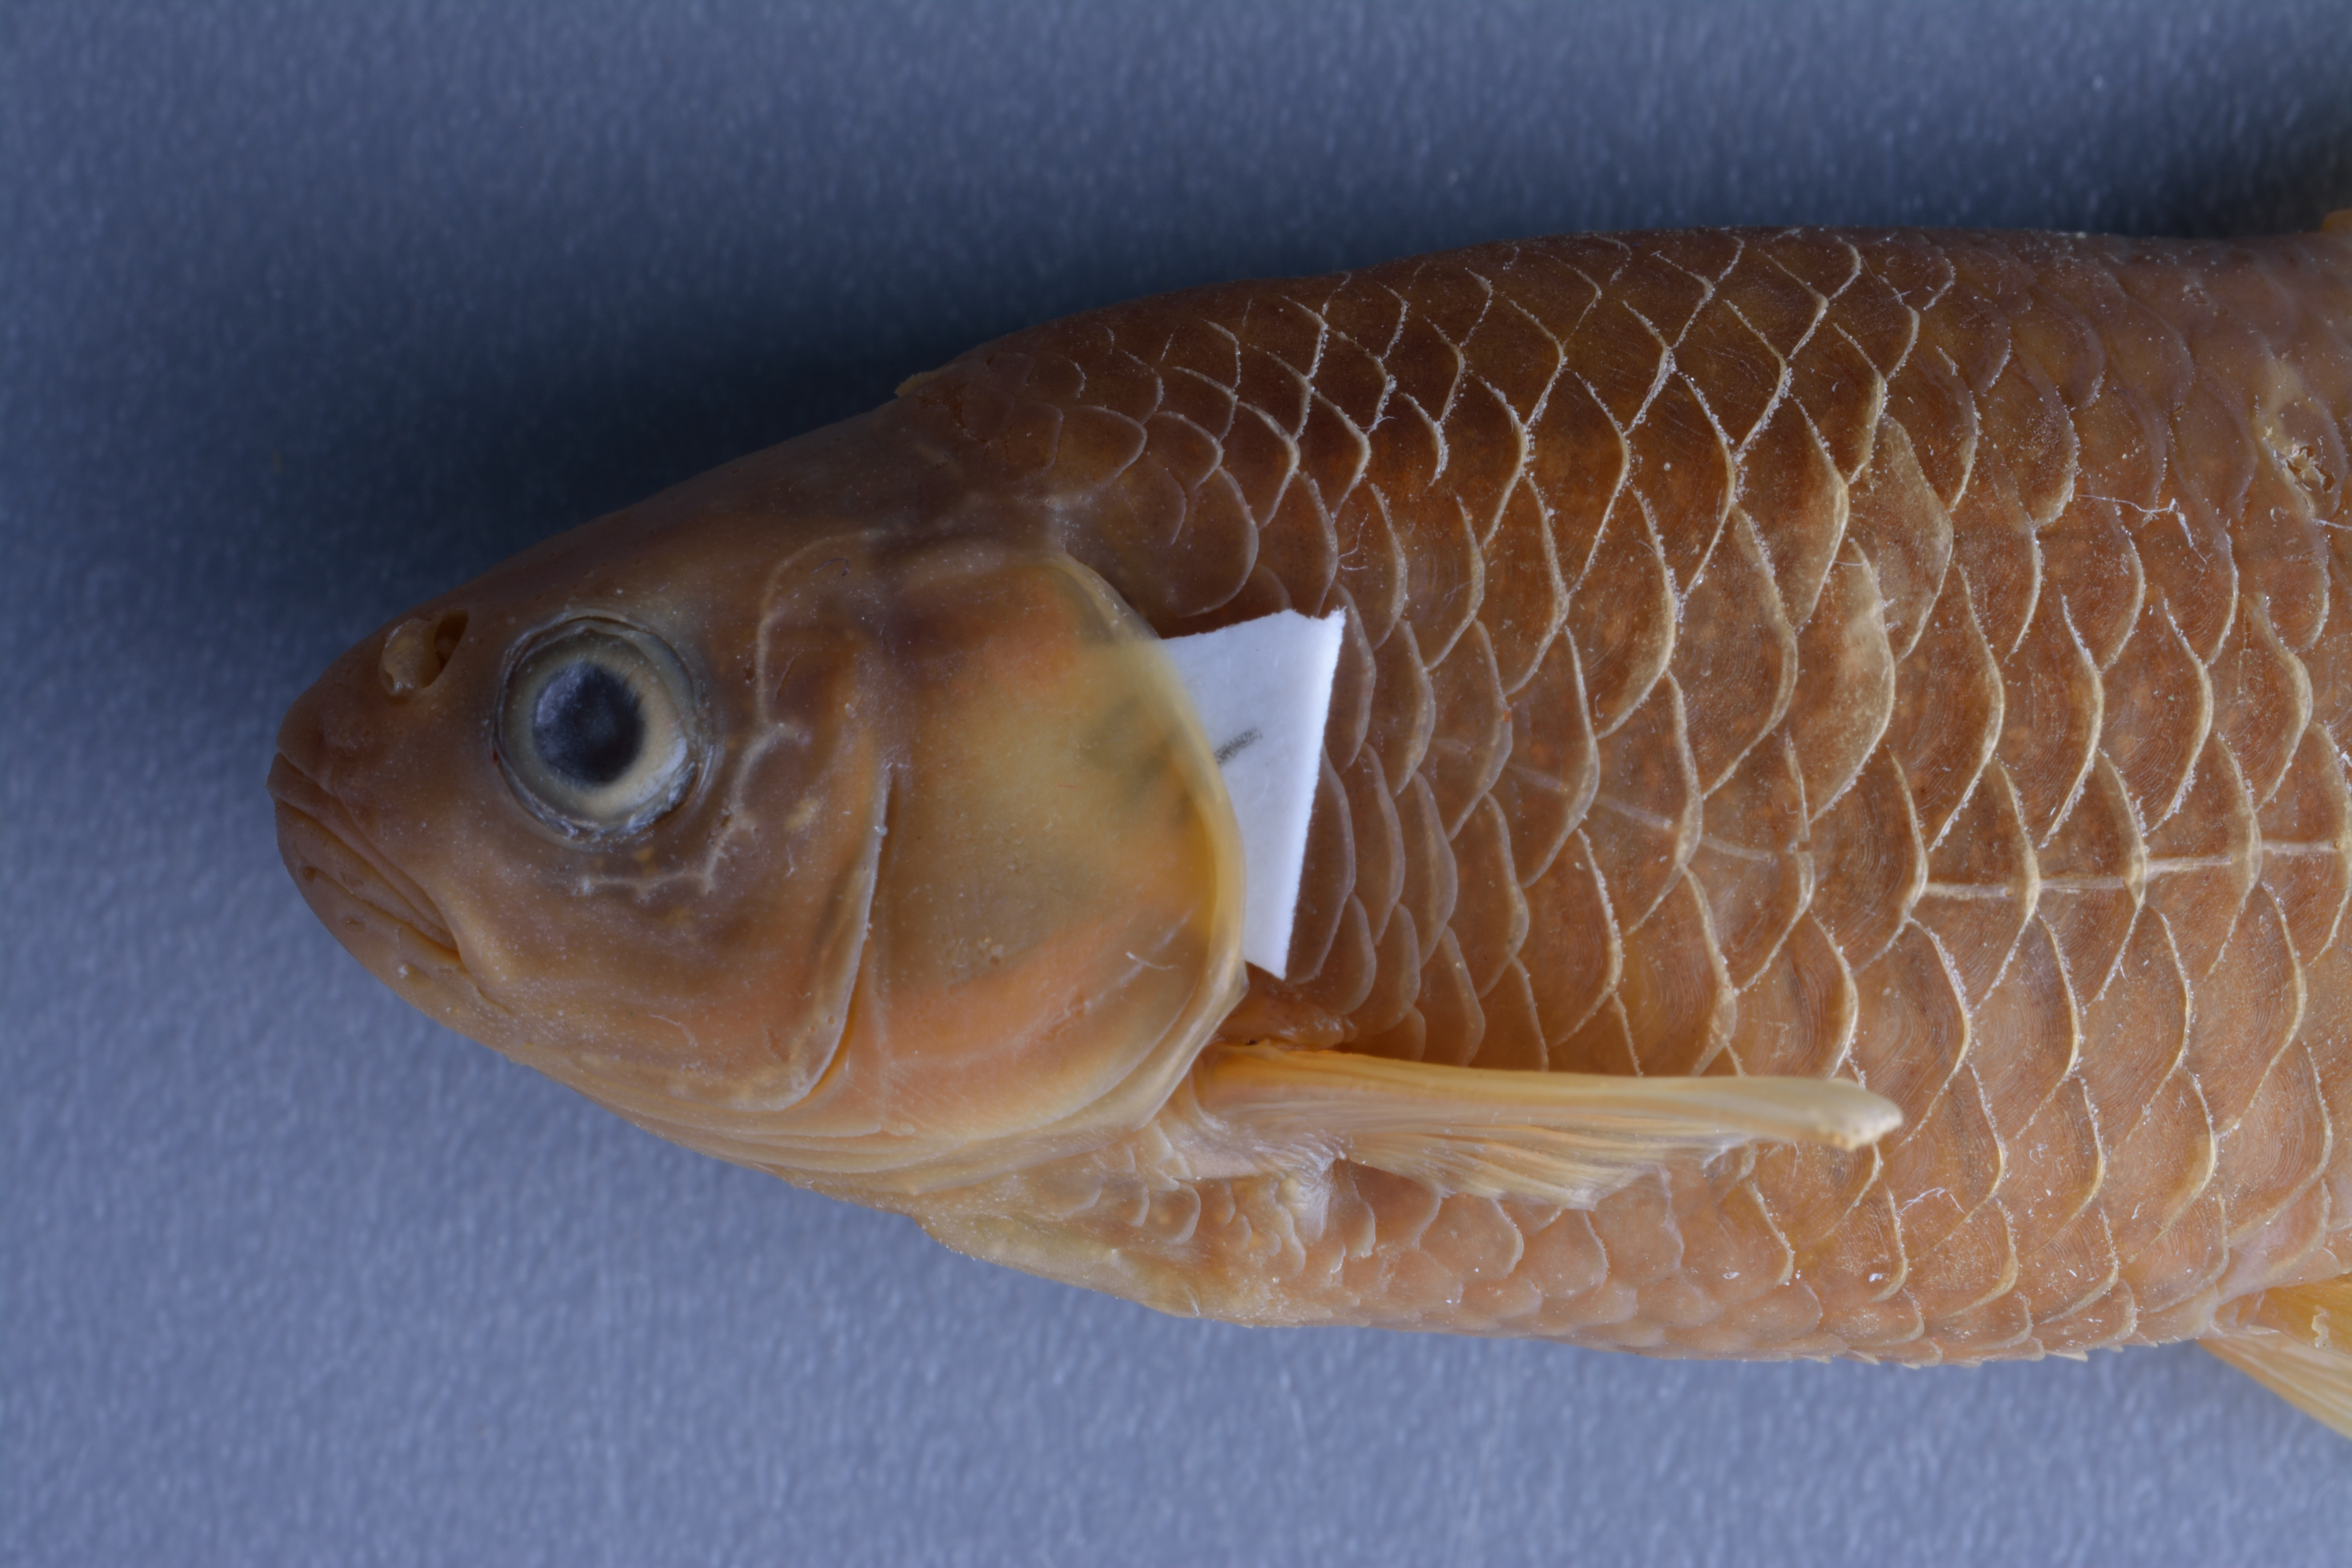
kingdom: Animalia
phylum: Chordata
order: Cypriniformes
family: Cyprinidae
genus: Cyprinella
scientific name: Cyprinella lutrensis
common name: Red shiner
